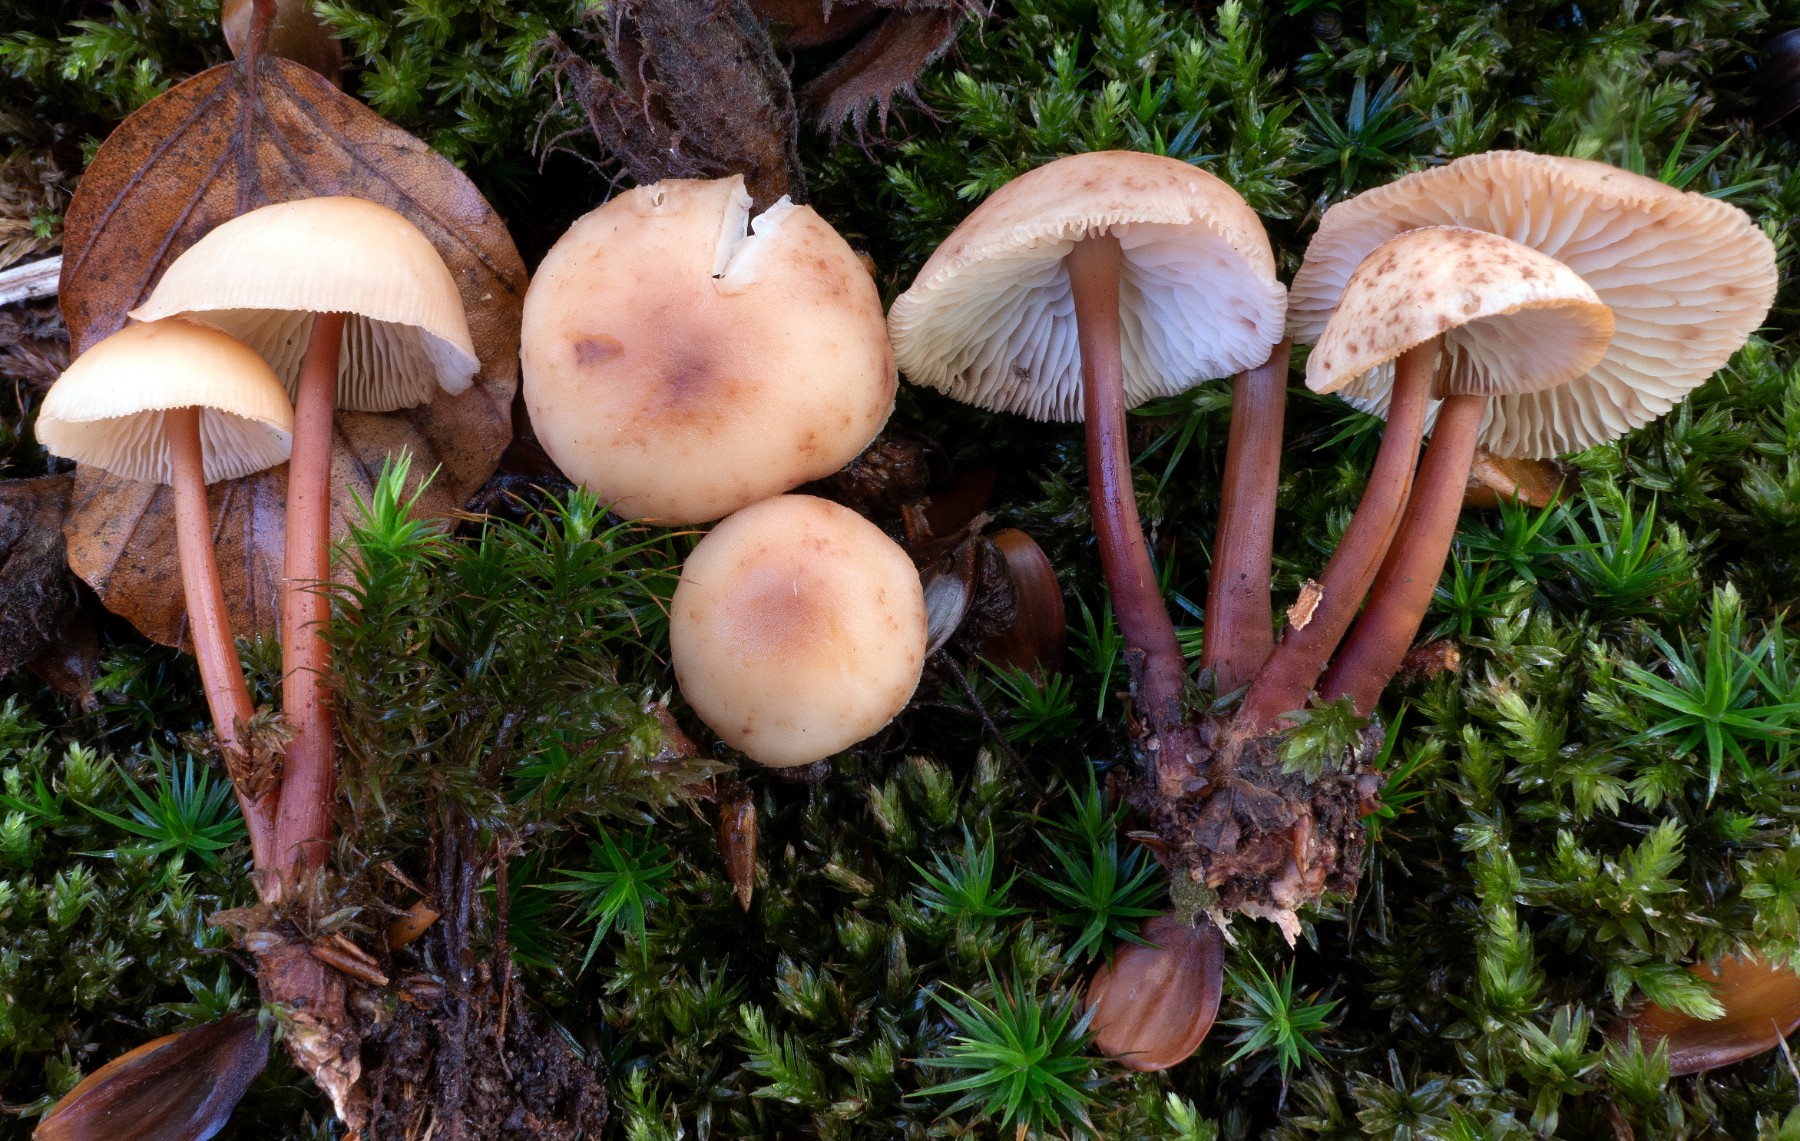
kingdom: Fungi
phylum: Basidiomycota
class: Agaricomycetes
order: Agaricales
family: Omphalotaceae
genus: Gymnopus
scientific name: Gymnopus erythropus
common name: rødstokket fladhat
